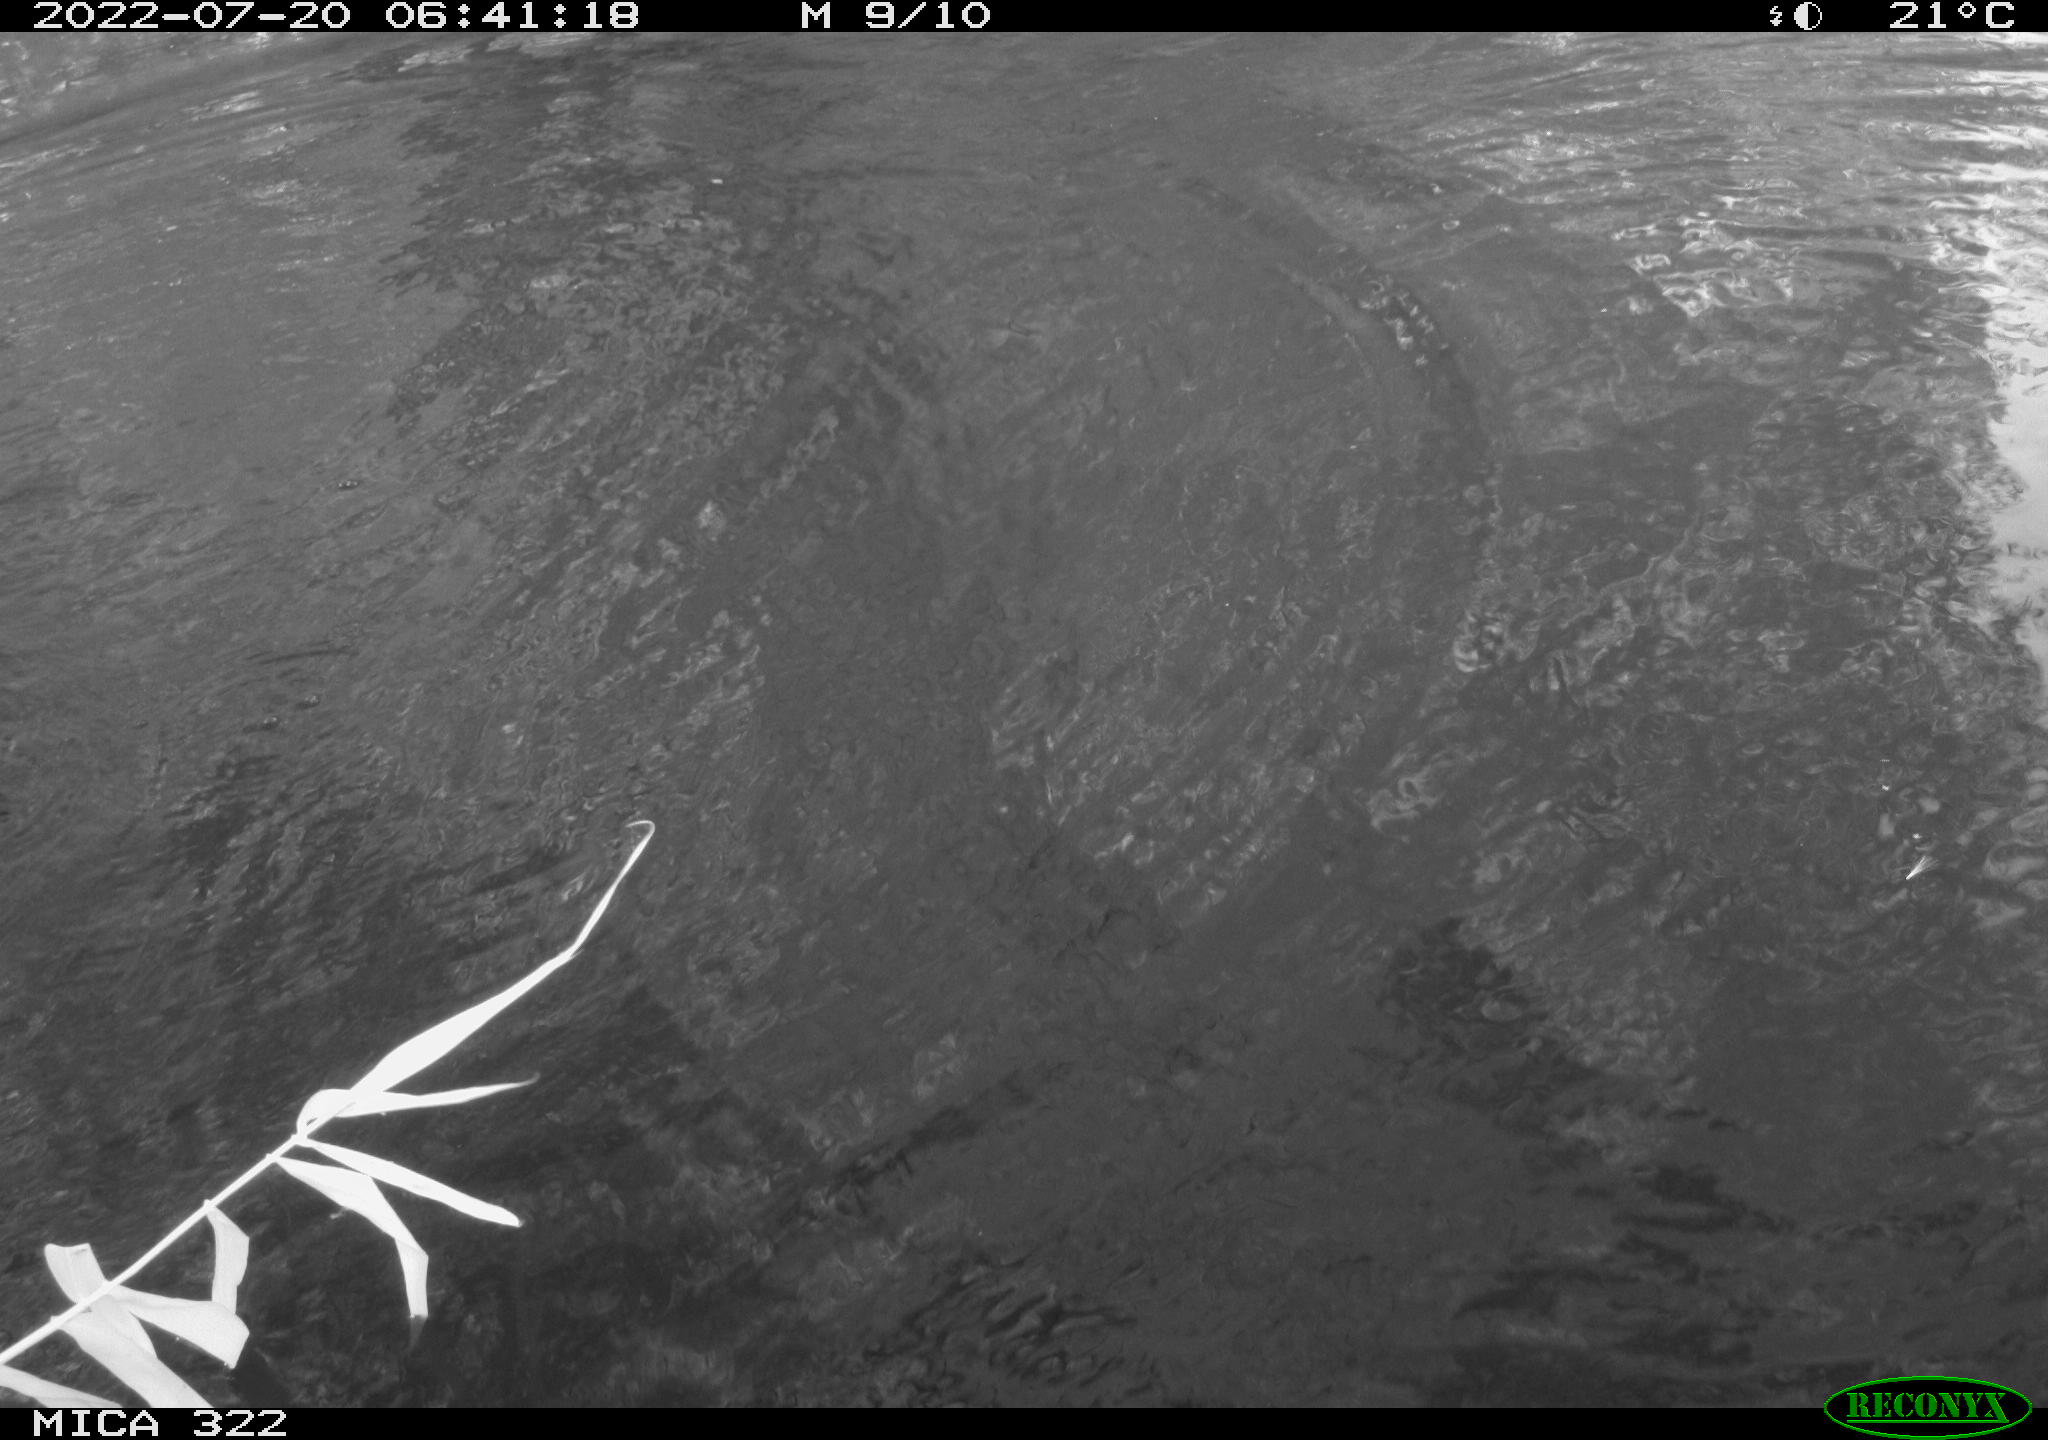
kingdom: Animalia
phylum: Chordata
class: Aves
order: Gruiformes
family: Rallidae
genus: Fulica
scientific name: Fulica atra
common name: Eurasian coot
